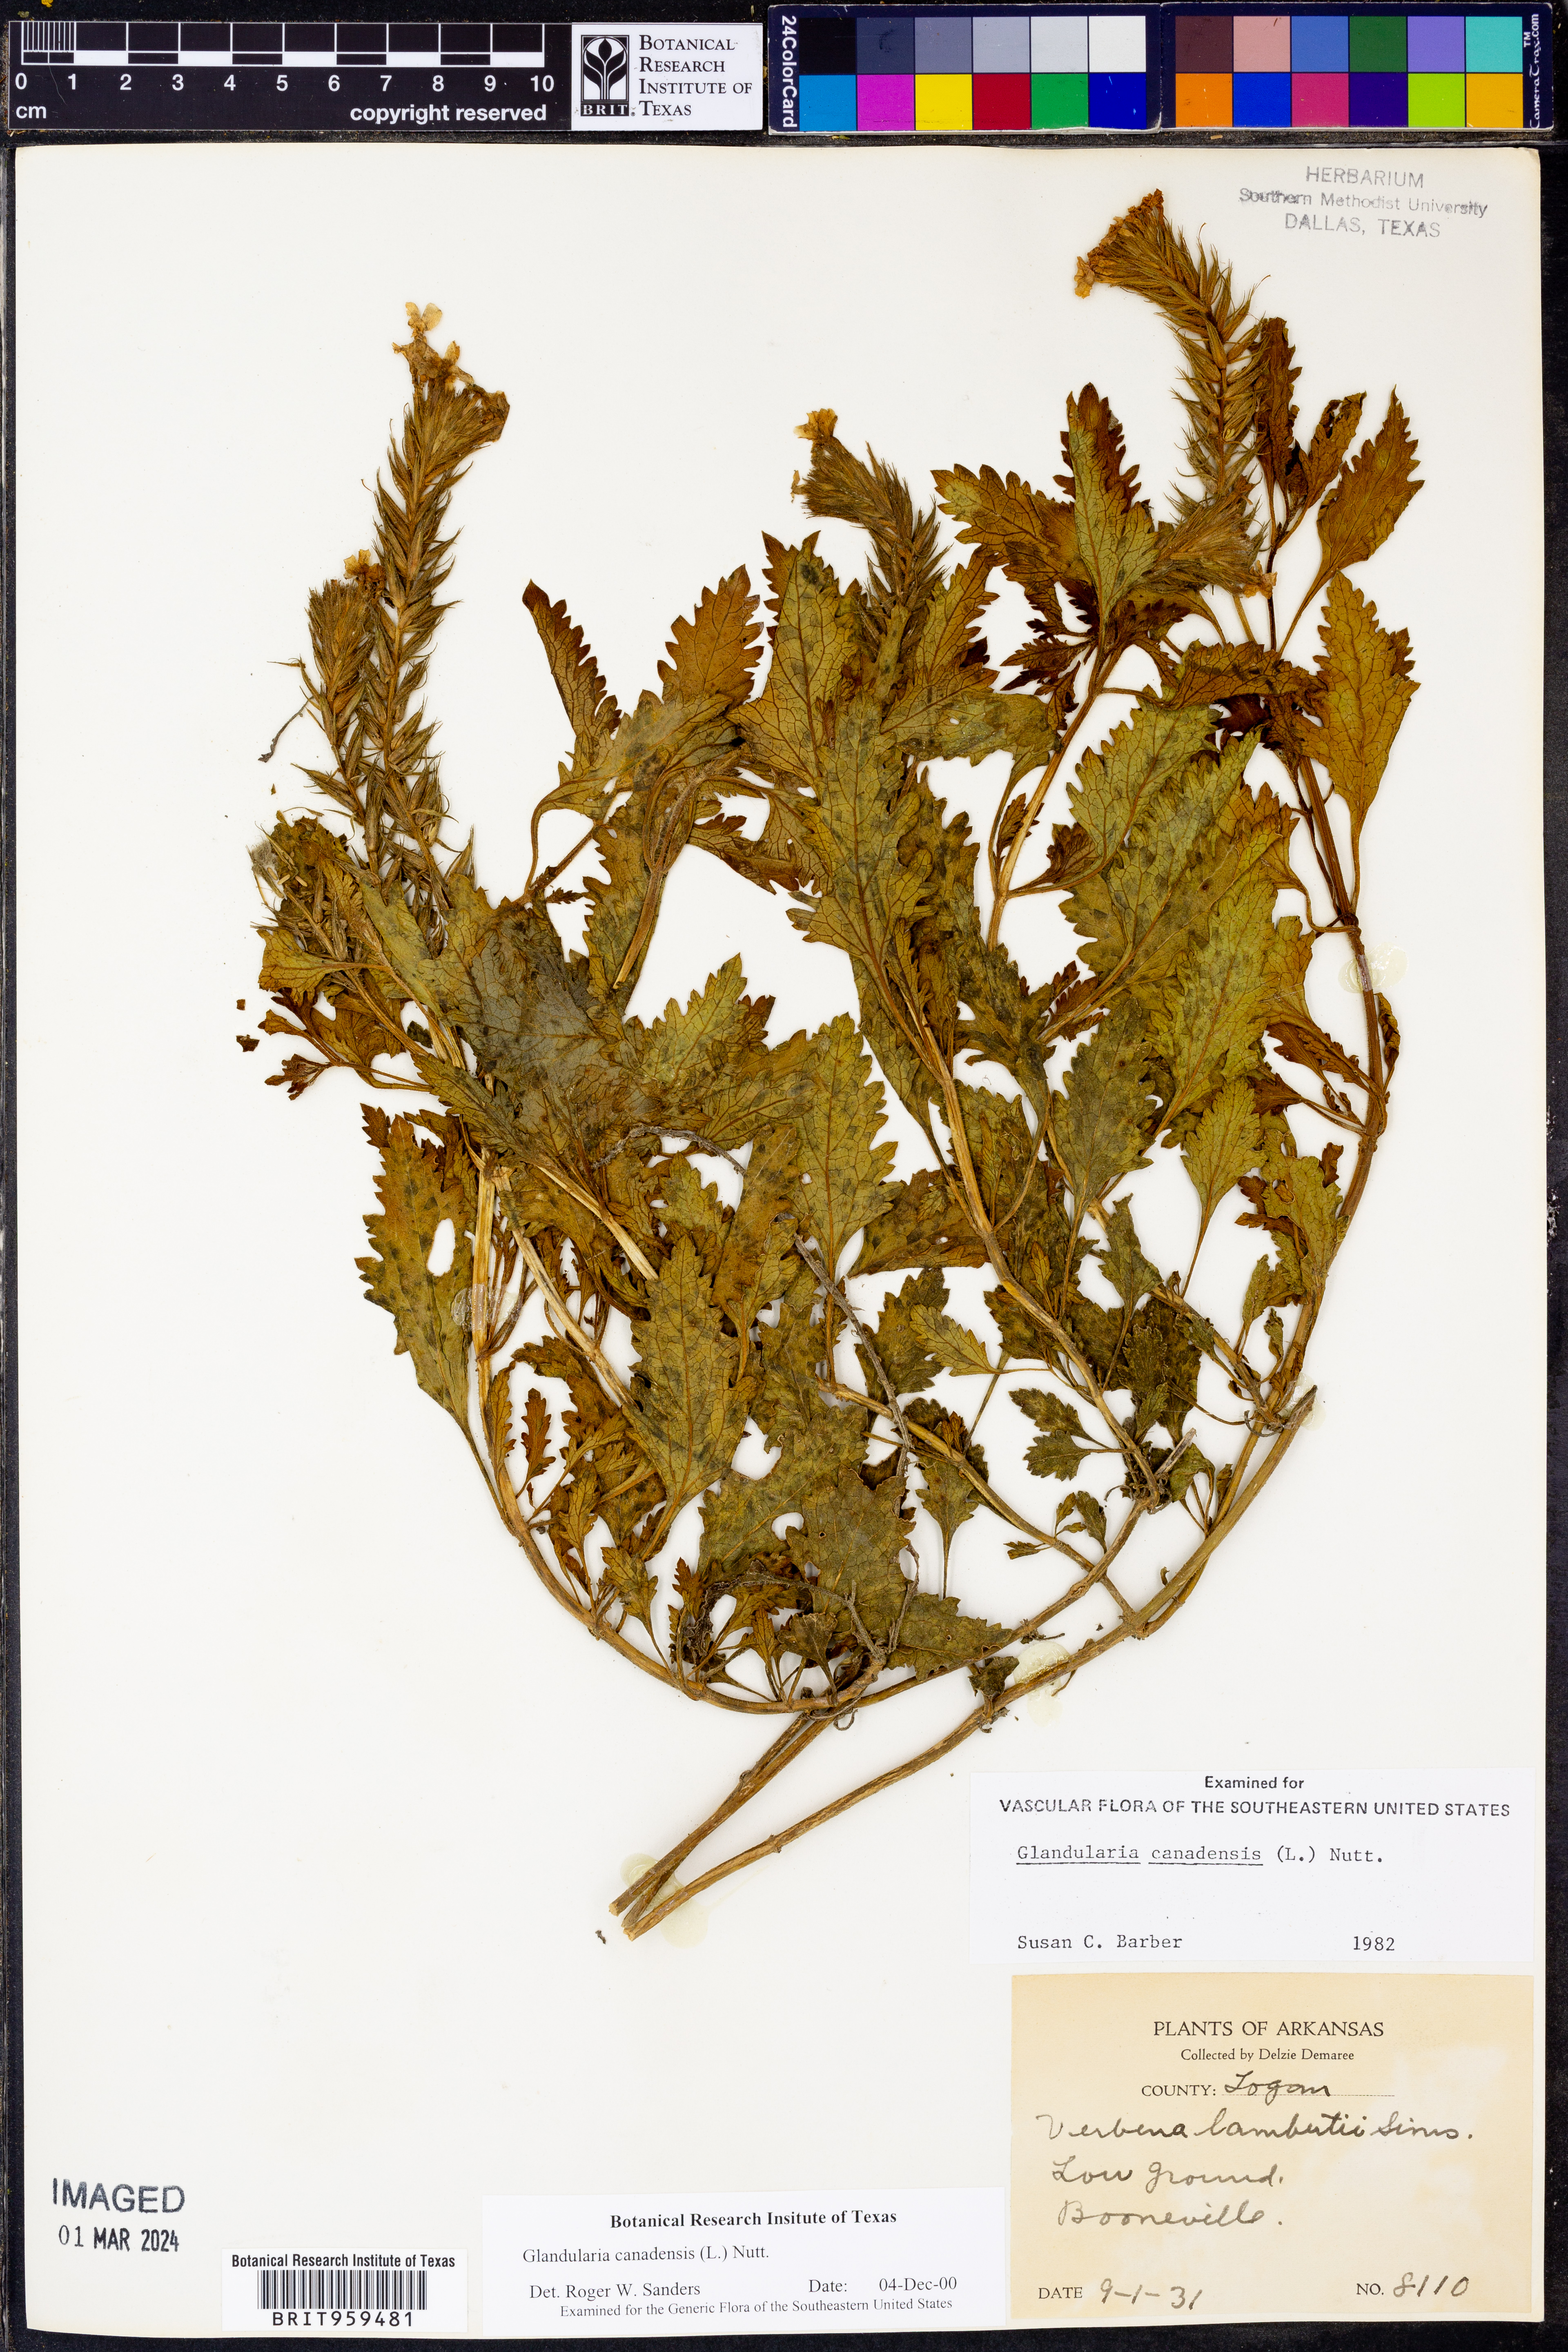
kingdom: Plantae
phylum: Tracheophyta
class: Magnoliopsida
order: Lamiales
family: Verbenaceae
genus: Verbena
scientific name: Verbena canadensis
